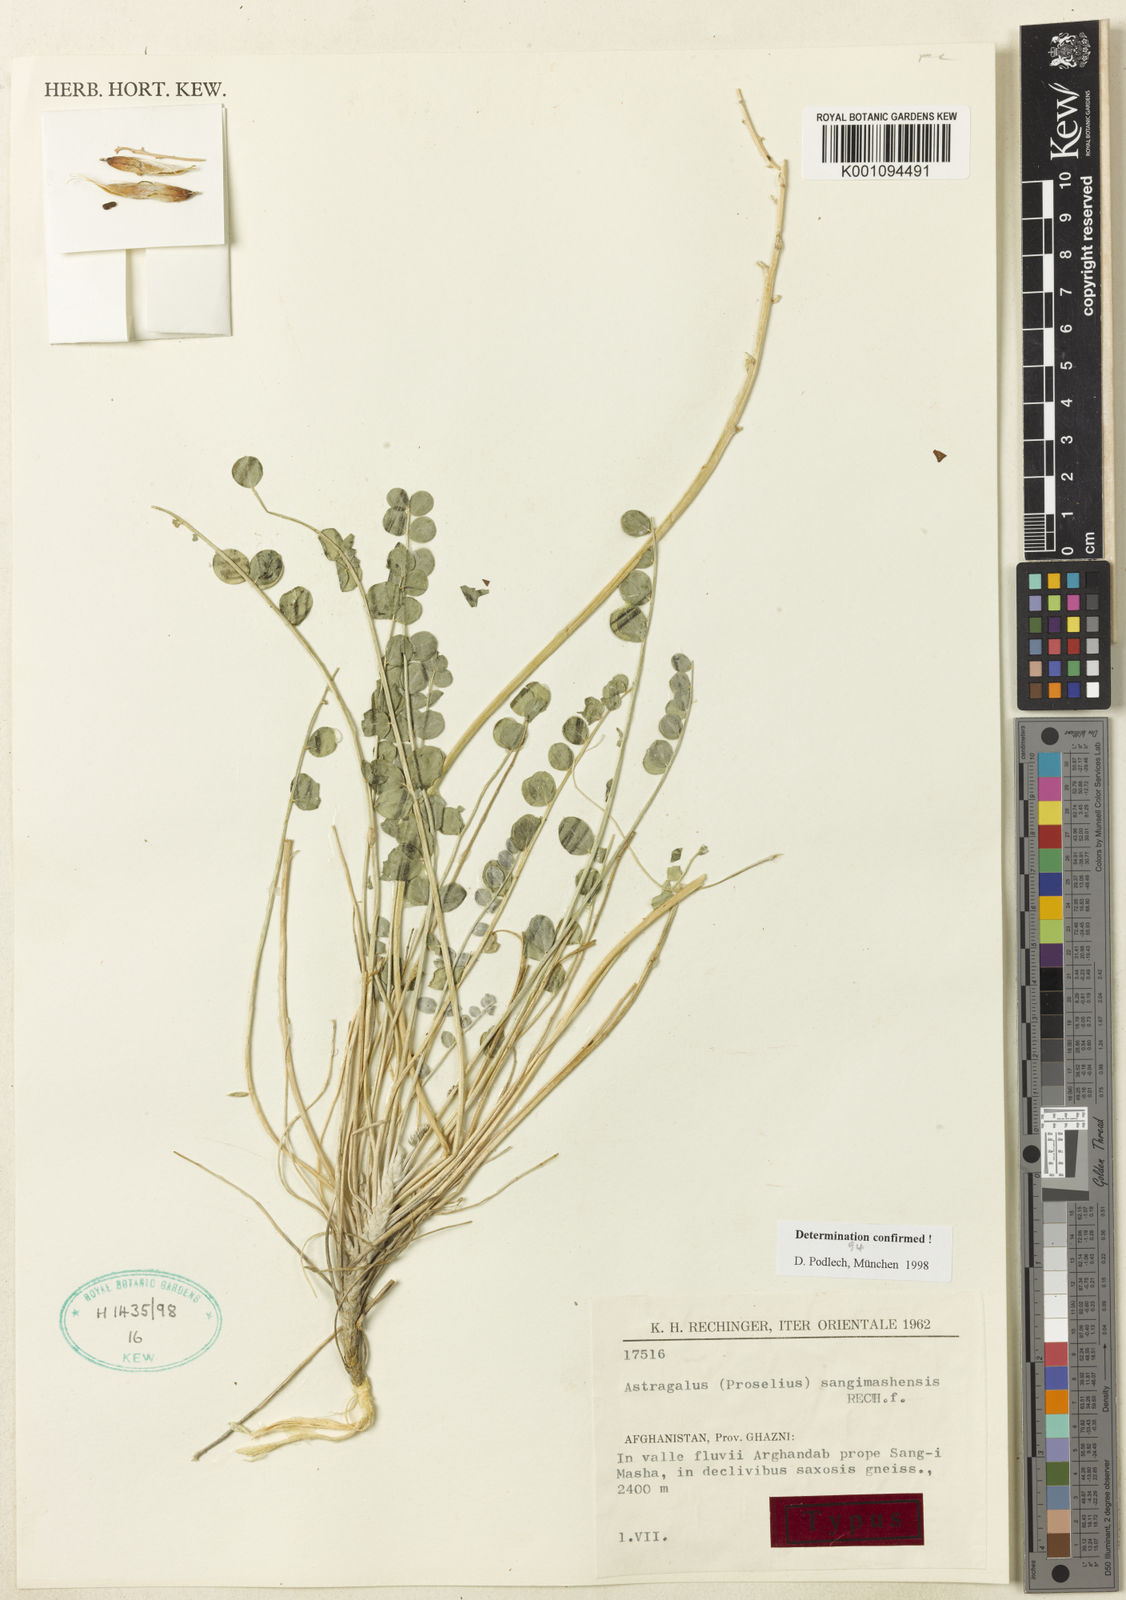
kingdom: Plantae
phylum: Tracheophyta
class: Magnoliopsida
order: Fabales
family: Fabaceae
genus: Astragalus
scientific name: Astragalus
